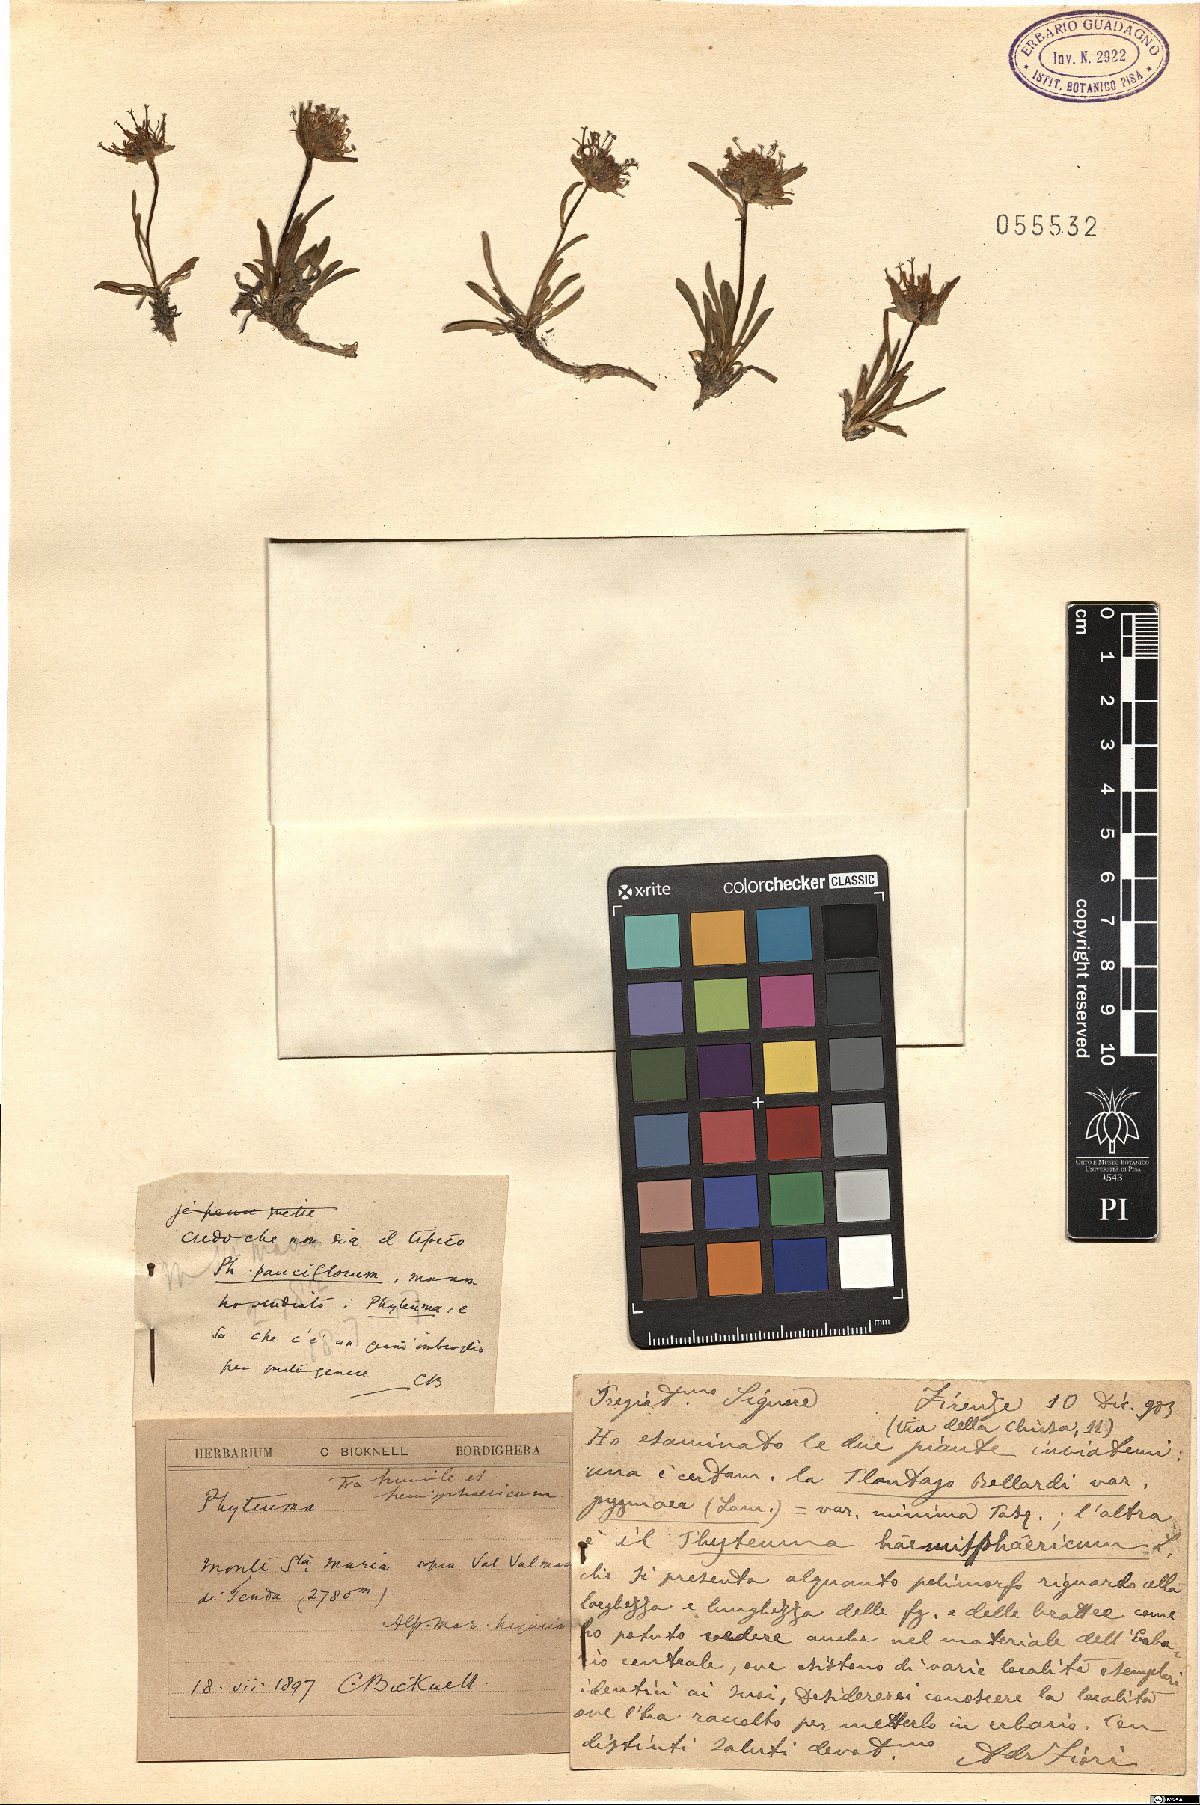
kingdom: Plantae
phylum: Tracheophyta
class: Magnoliopsida
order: Asterales
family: Campanulaceae
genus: Phyteuma
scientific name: Phyteuma
